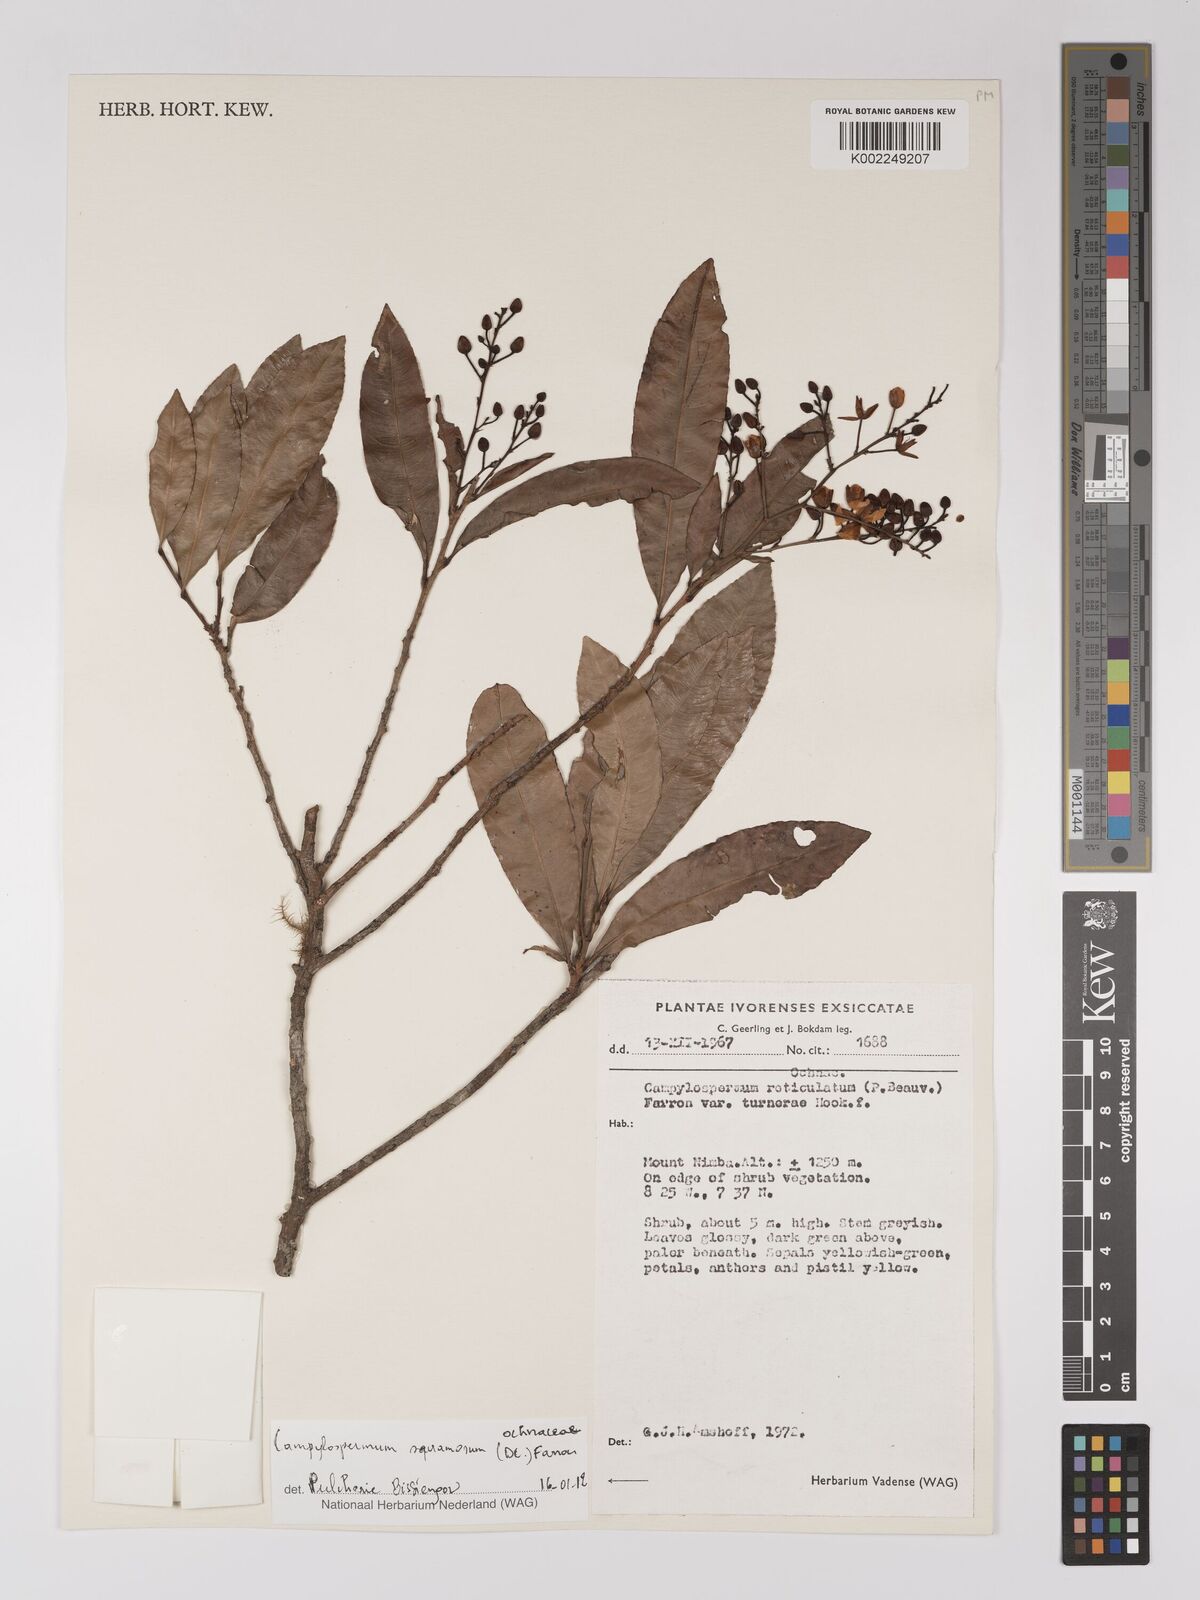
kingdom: Plantae
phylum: Tracheophyta
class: Magnoliopsida
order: Malpighiales
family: Ochnaceae
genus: Campylospermum
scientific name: Campylospermum squamosum
